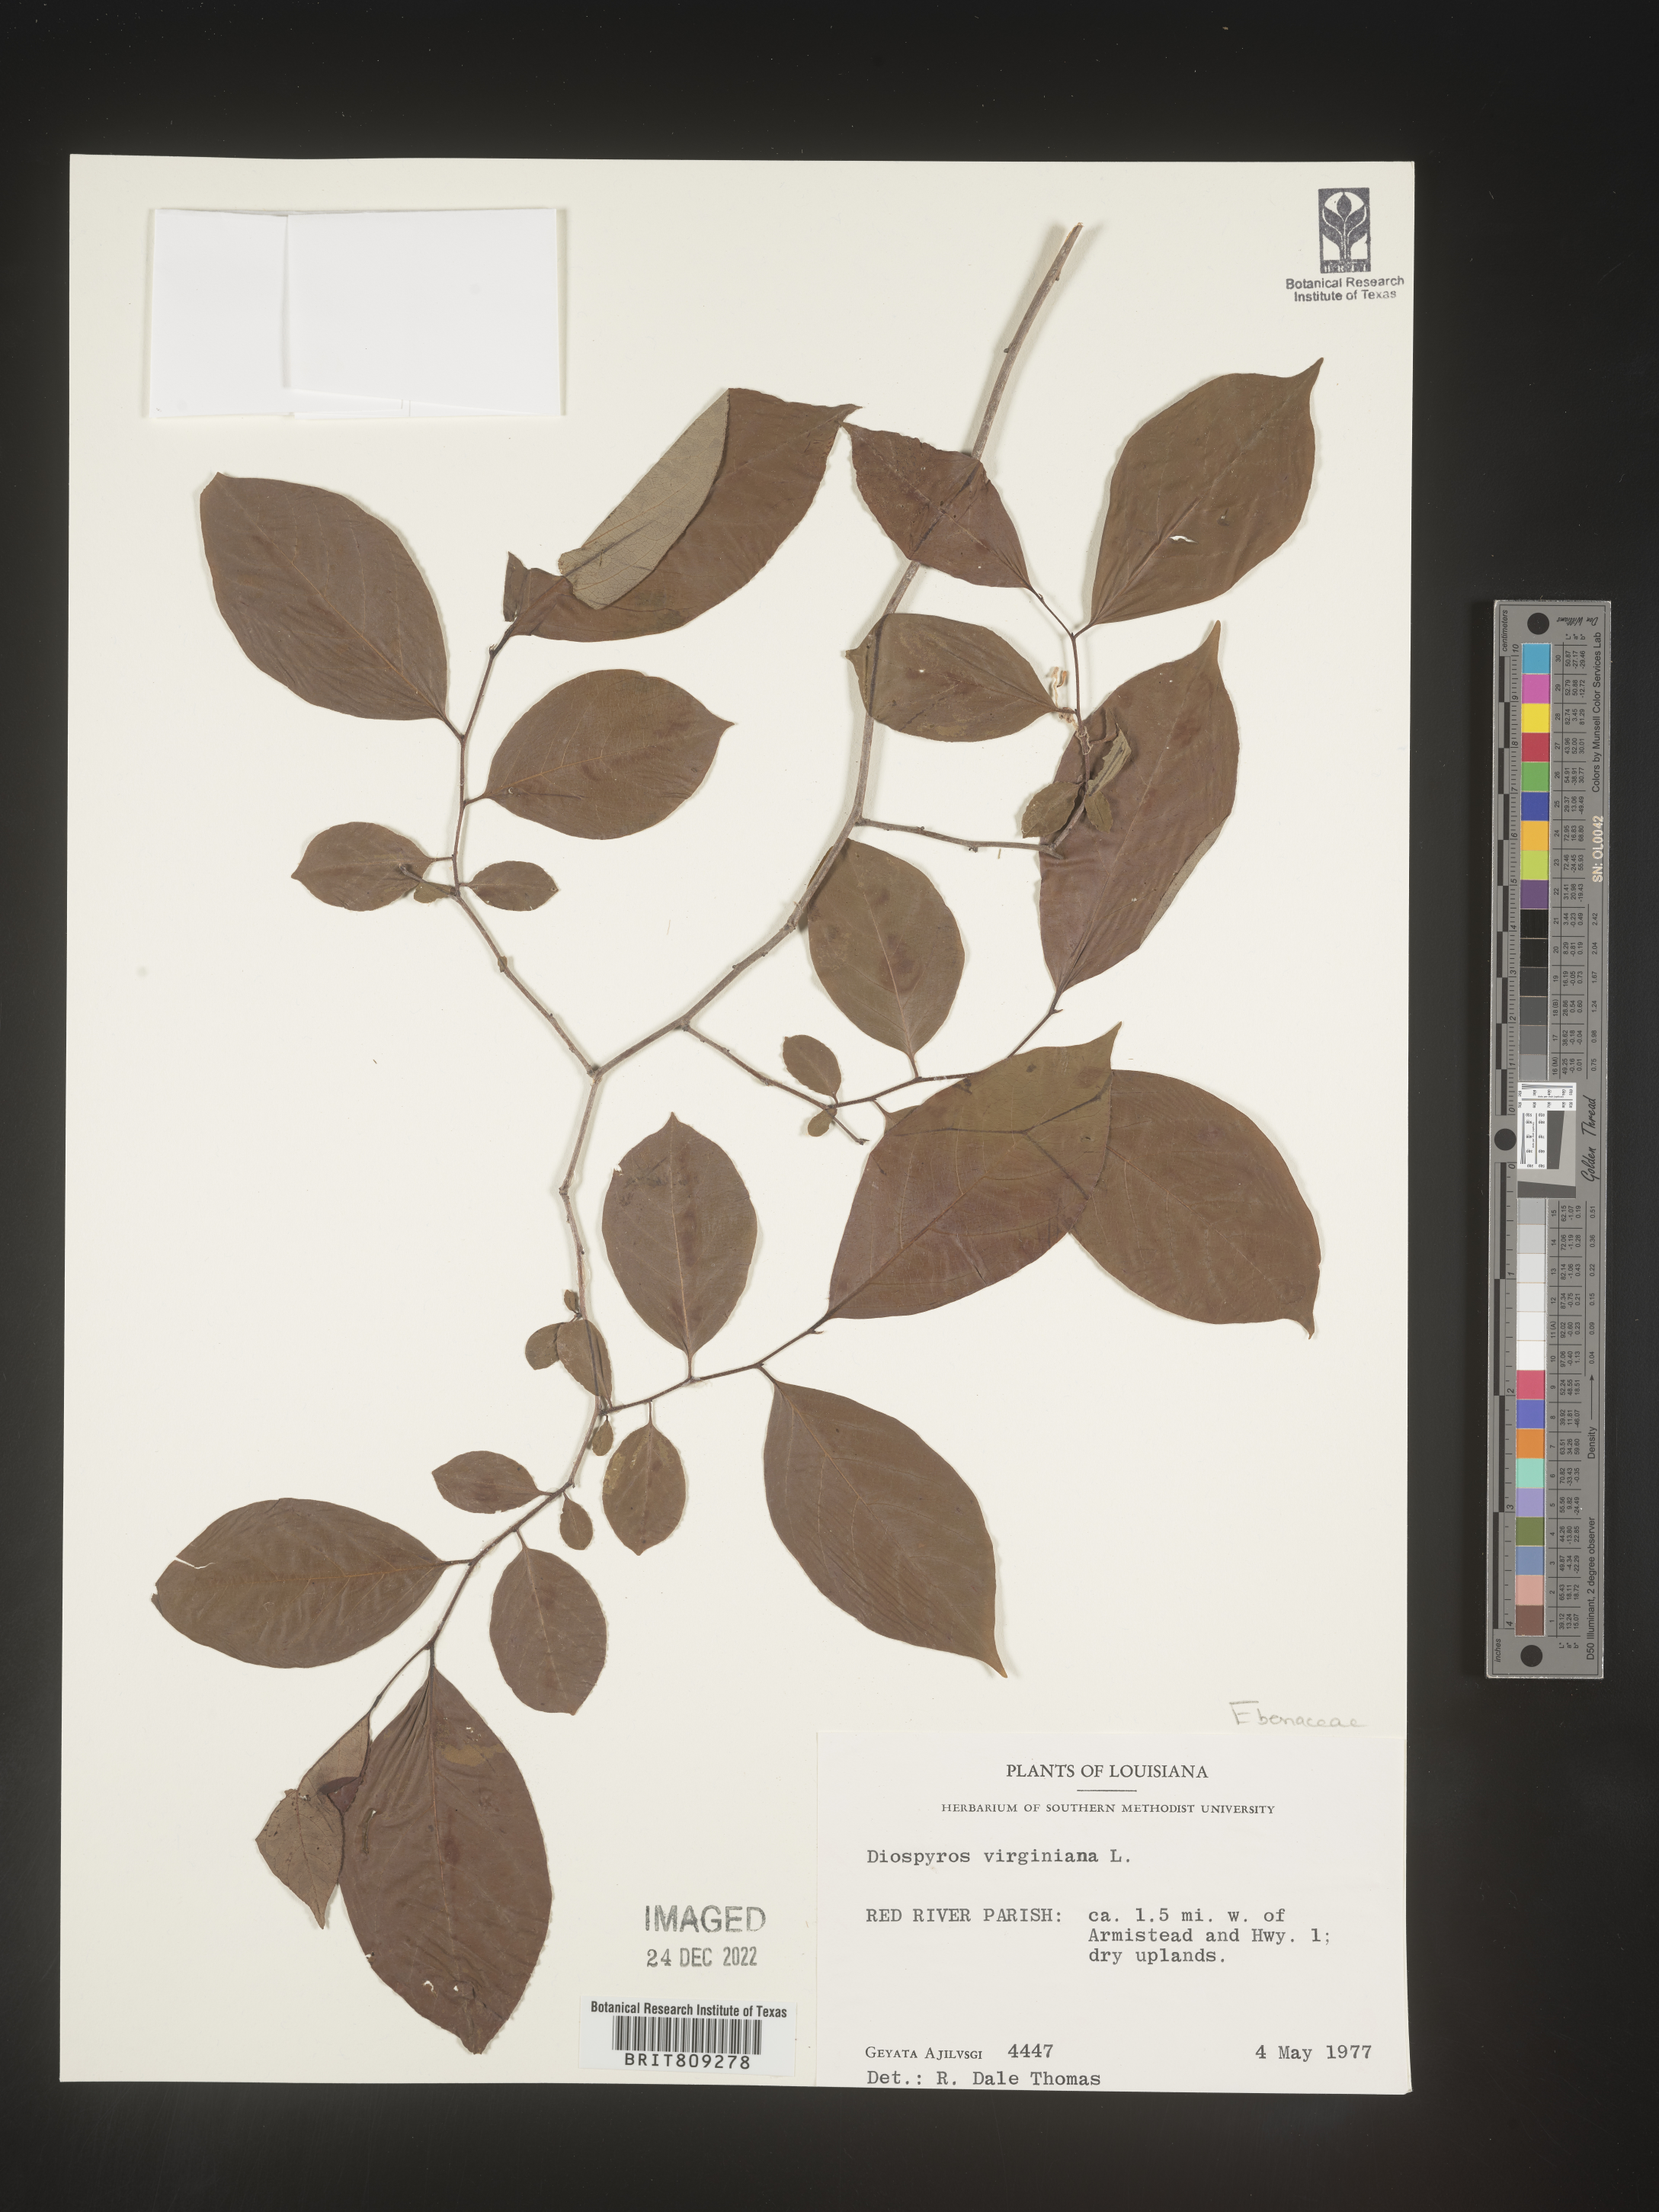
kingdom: Plantae
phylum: Tracheophyta
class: Magnoliopsida
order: Ericales
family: Ebenaceae
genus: Diospyros
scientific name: Diospyros virginiana
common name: Persimmon
